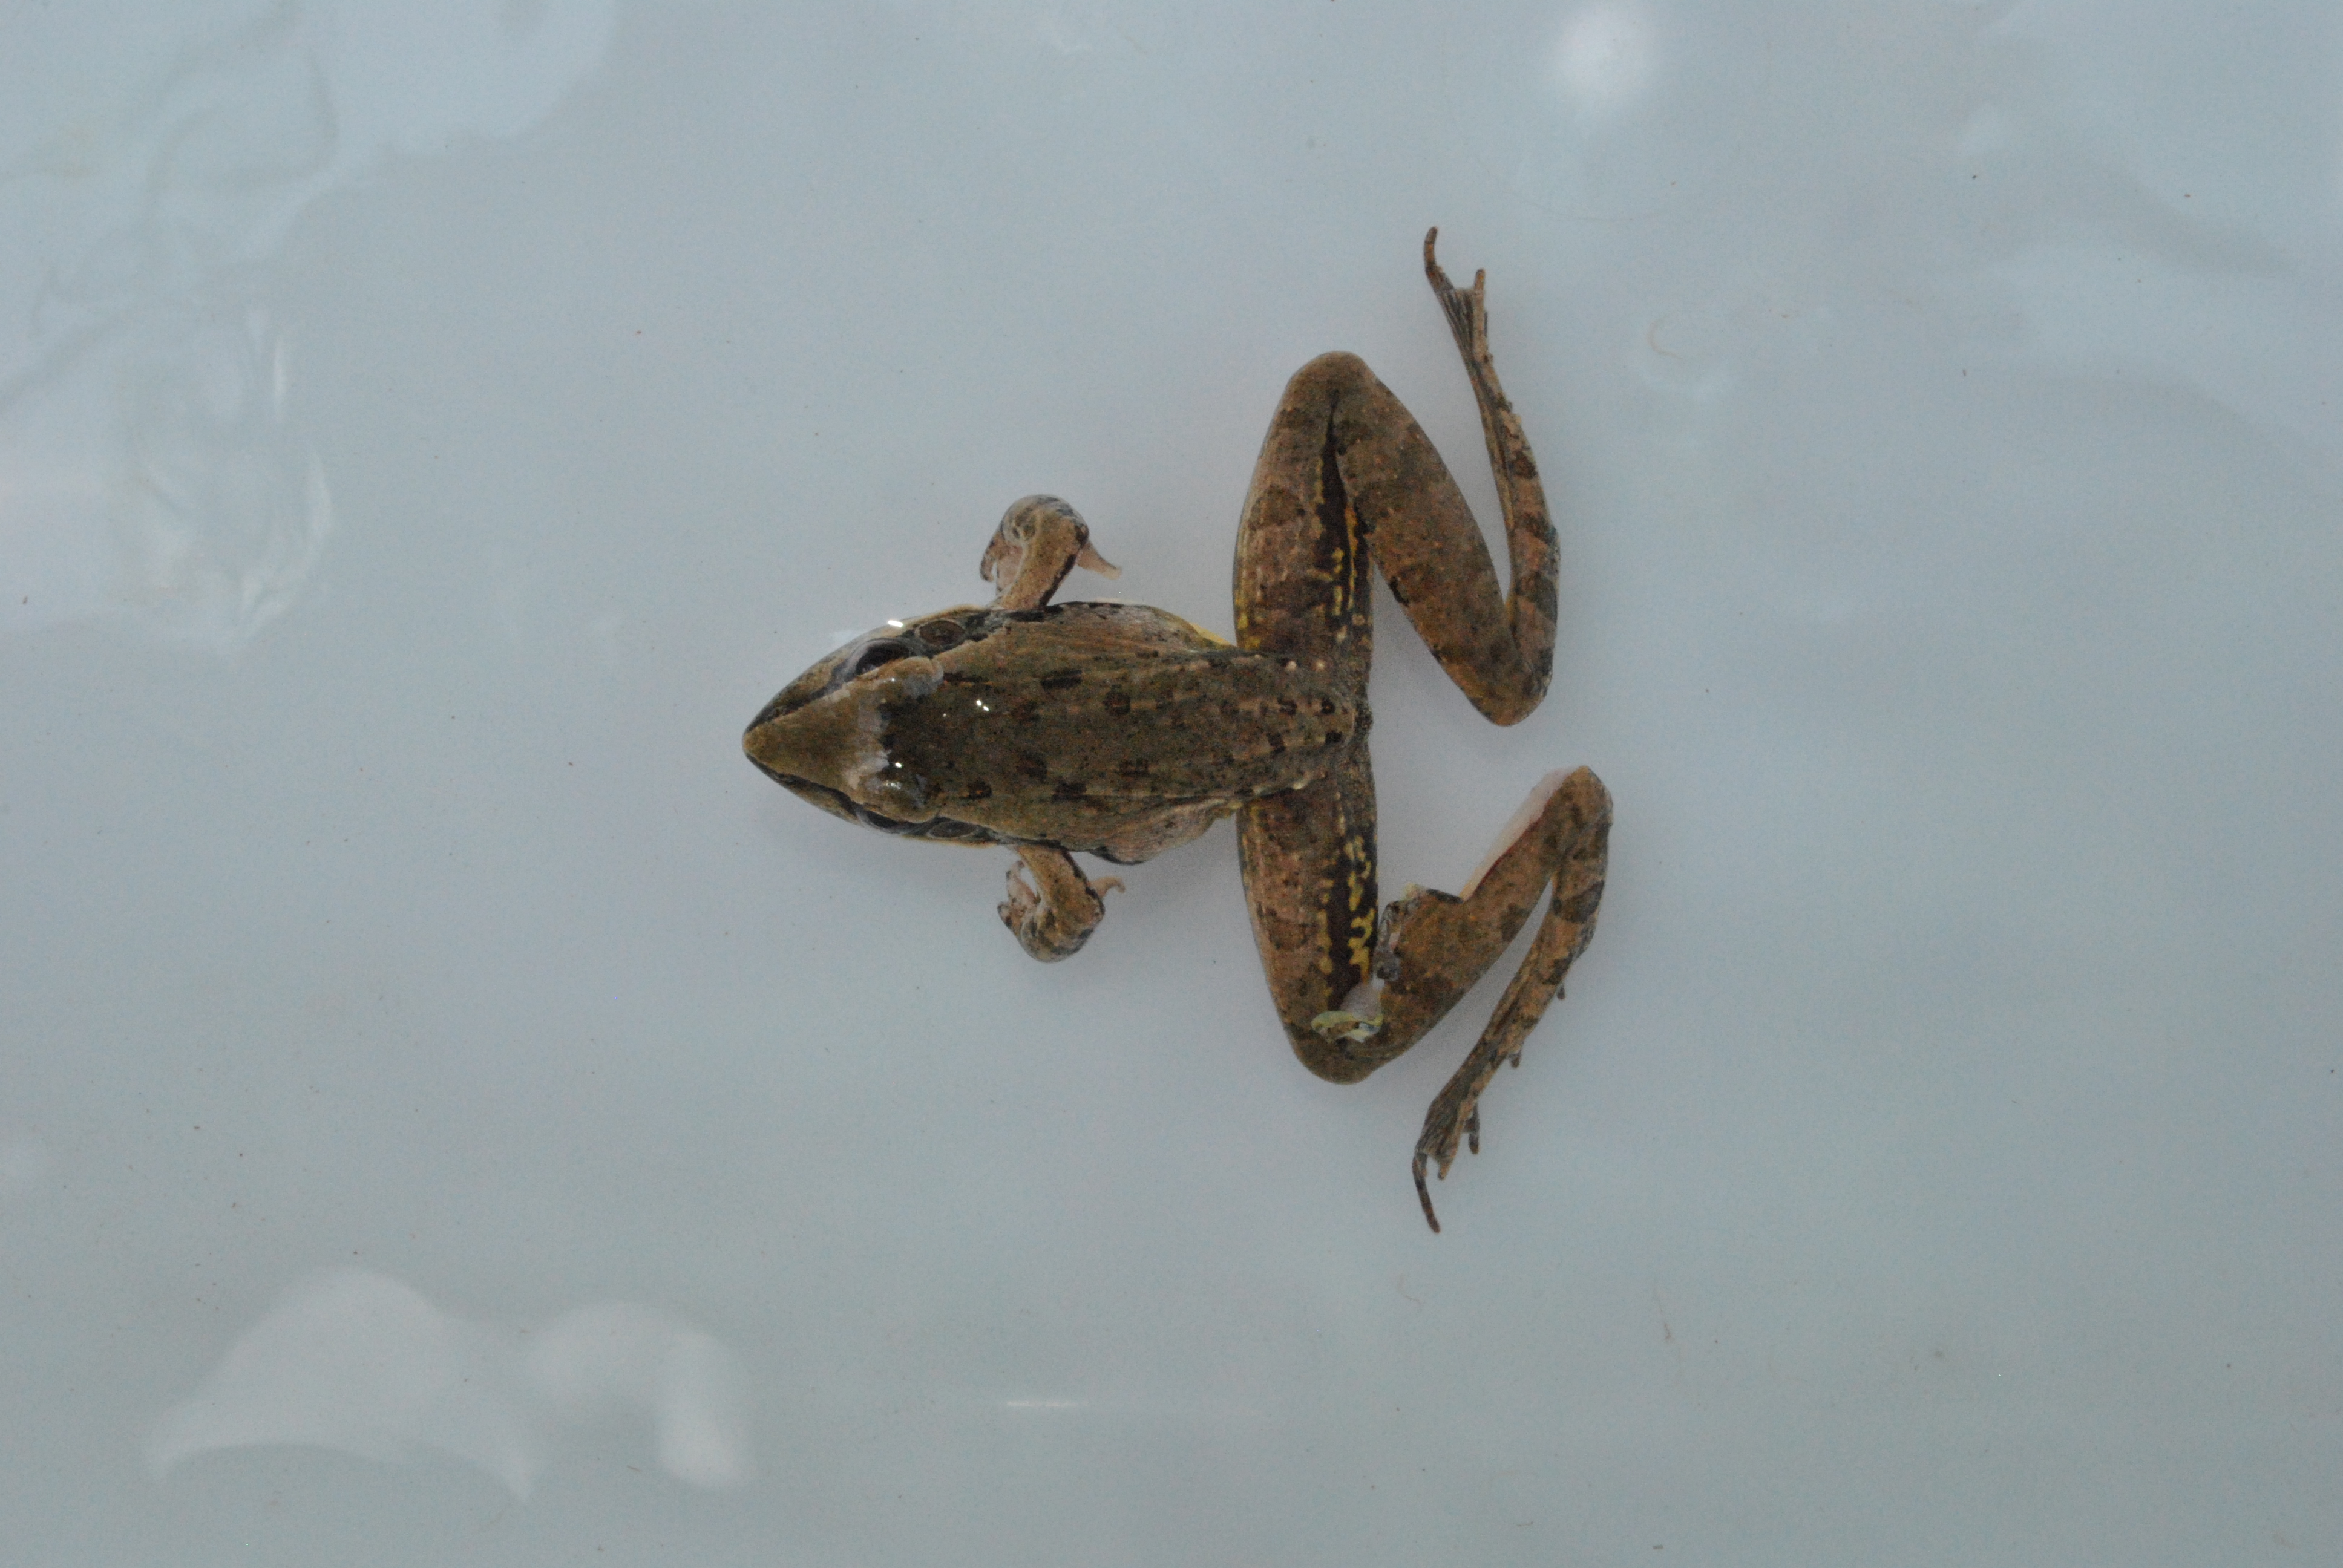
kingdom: Animalia
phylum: Chordata
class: Amphibia
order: Anura
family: Ptychadenidae
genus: Ptychadena
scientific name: Ptychadena oxyrhynchus
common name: Sharp-nosed ridged frog
